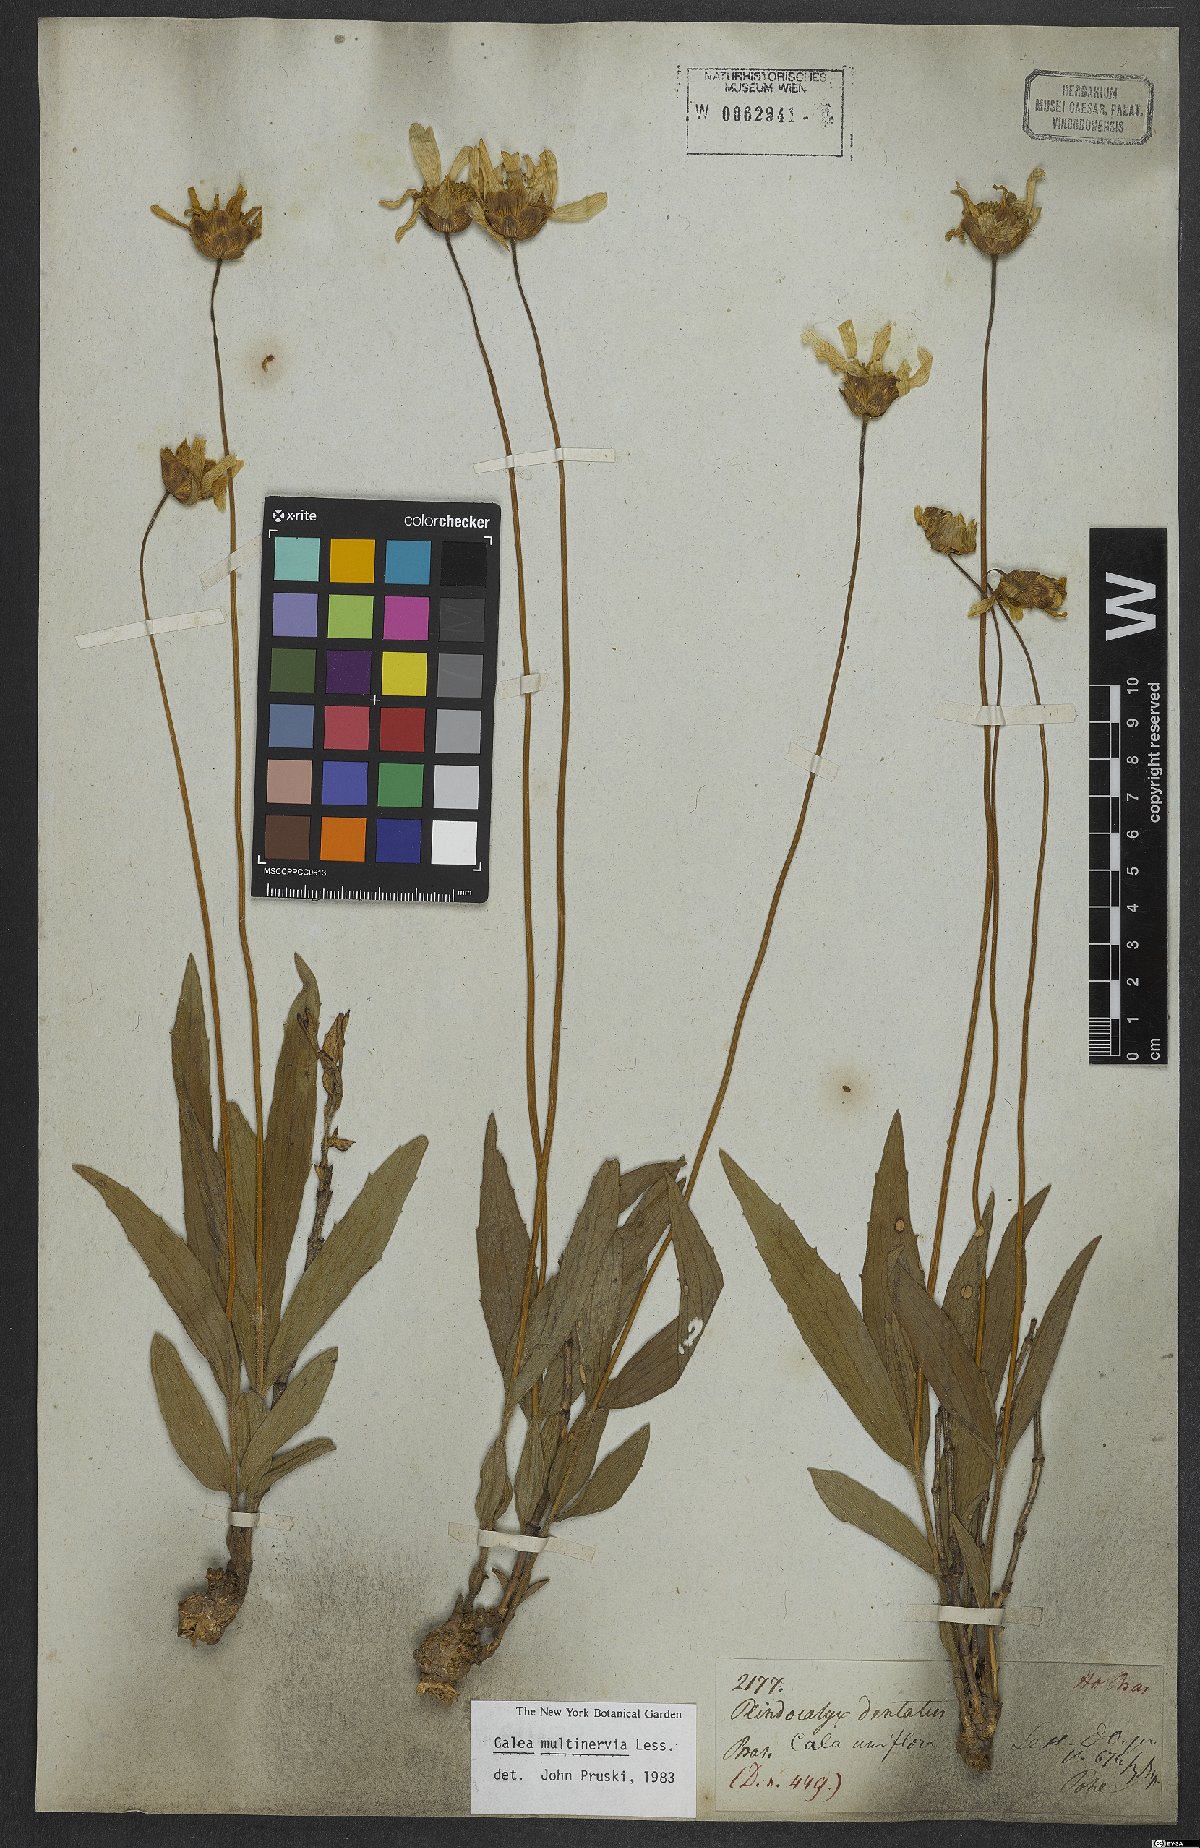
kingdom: Plantae
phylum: Tracheophyta
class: Magnoliopsida
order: Asterales
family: Asteraceae
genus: Calea
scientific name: Calea multiplinervia
